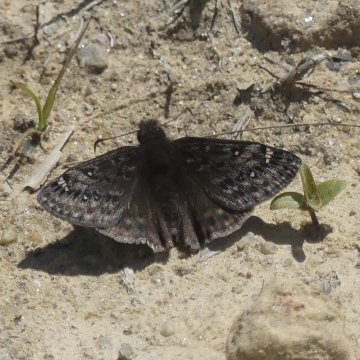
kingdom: Animalia
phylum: Arthropoda
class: Insecta
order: Lepidoptera
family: Hesperiidae
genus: Gesta
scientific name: Gesta
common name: Juvenal's Duskywing
